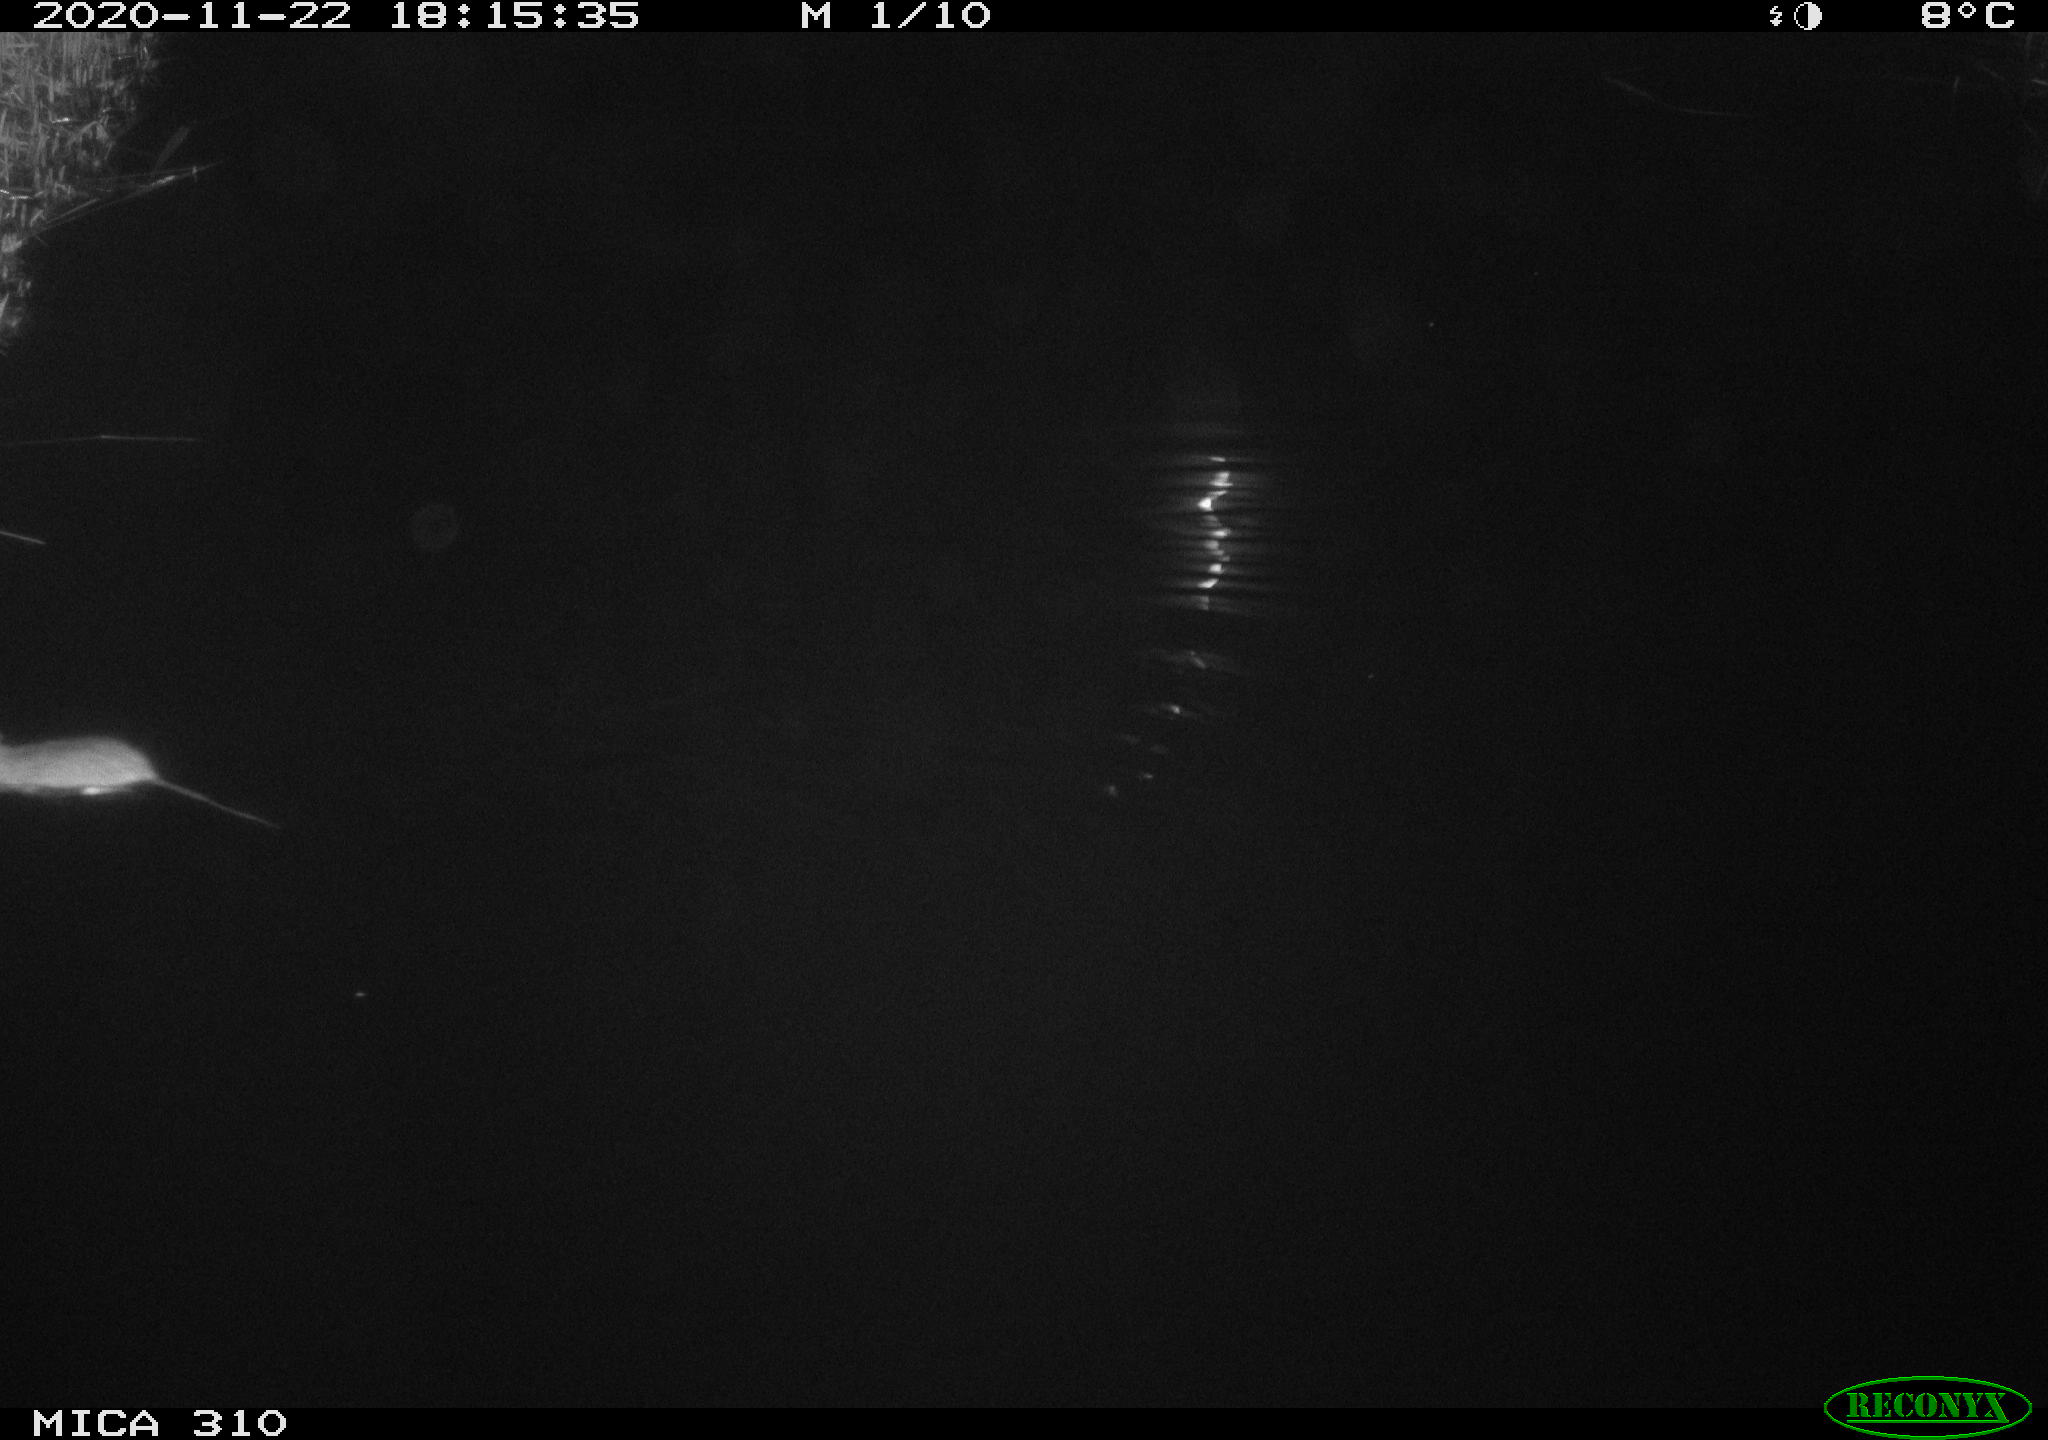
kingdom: Animalia
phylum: Chordata
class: Mammalia
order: Rodentia
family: Muridae
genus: Rattus
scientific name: Rattus norvegicus
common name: Brown rat
